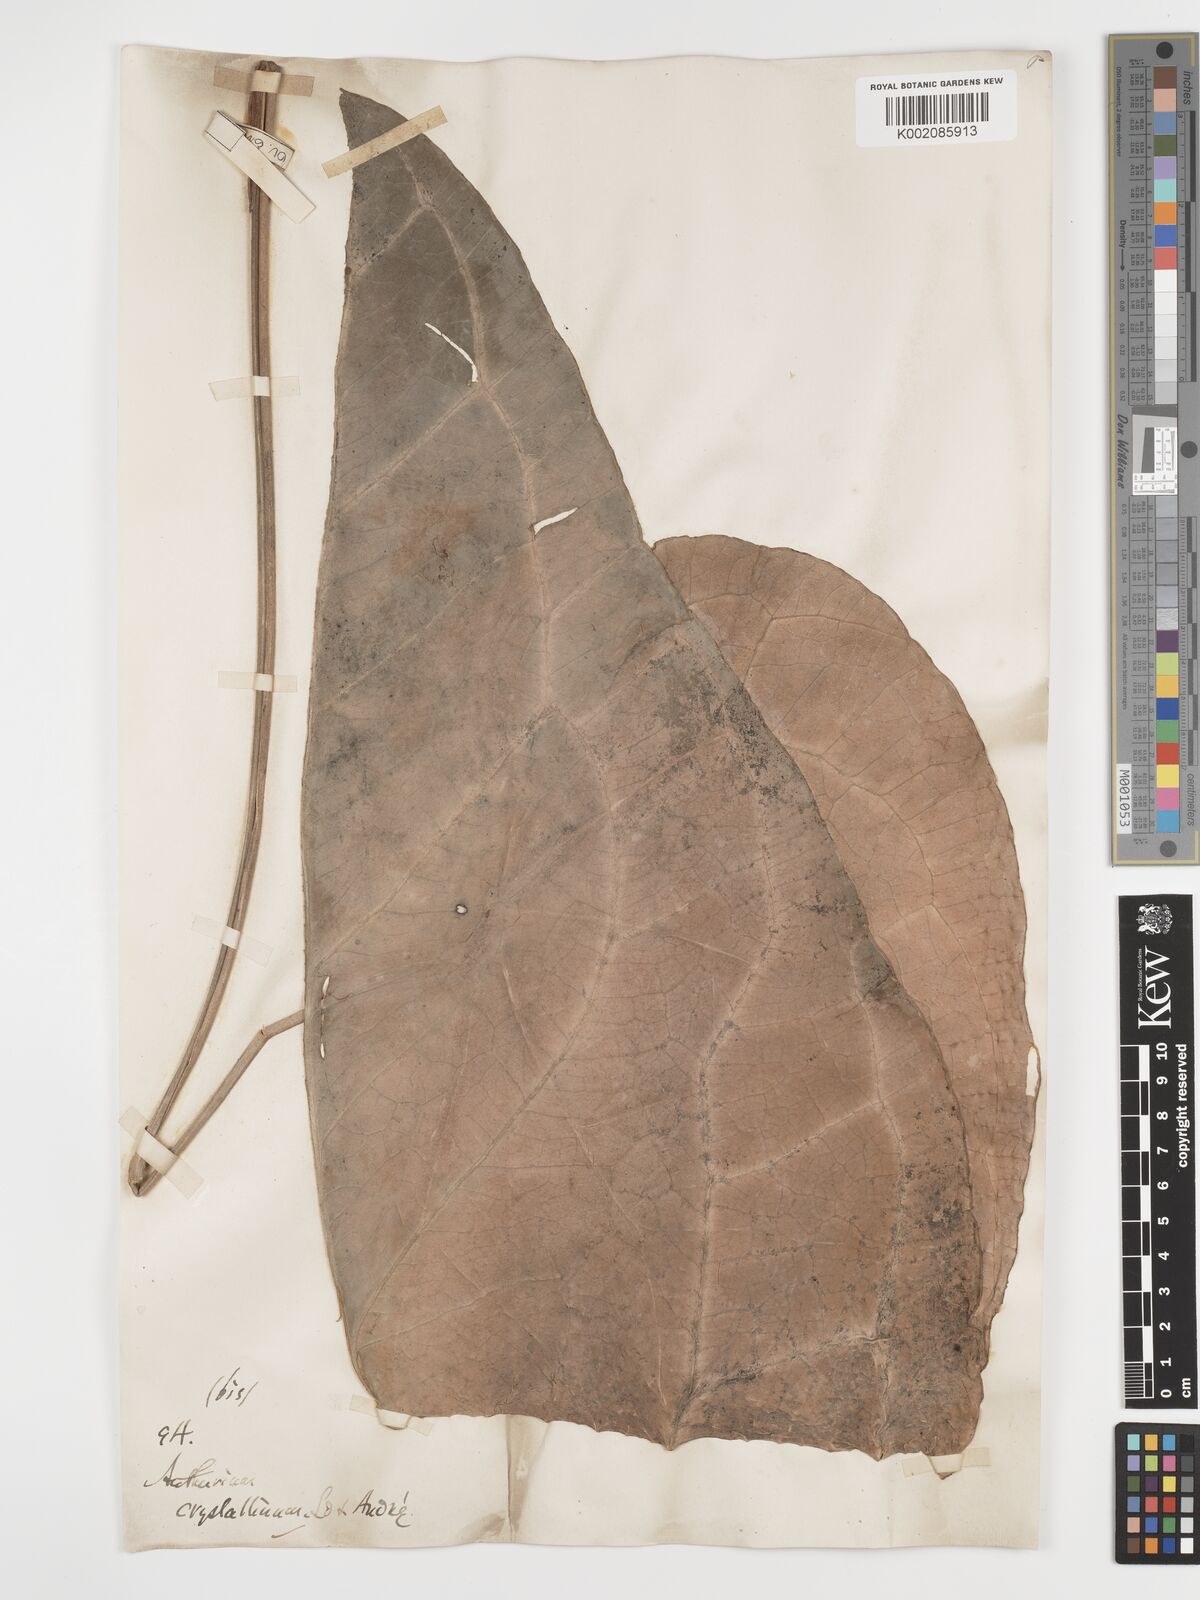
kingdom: Plantae
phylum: Tracheophyta
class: Liliopsida
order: Alismatales
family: Araceae
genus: Anthurium
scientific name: Anthurium crystallinum
